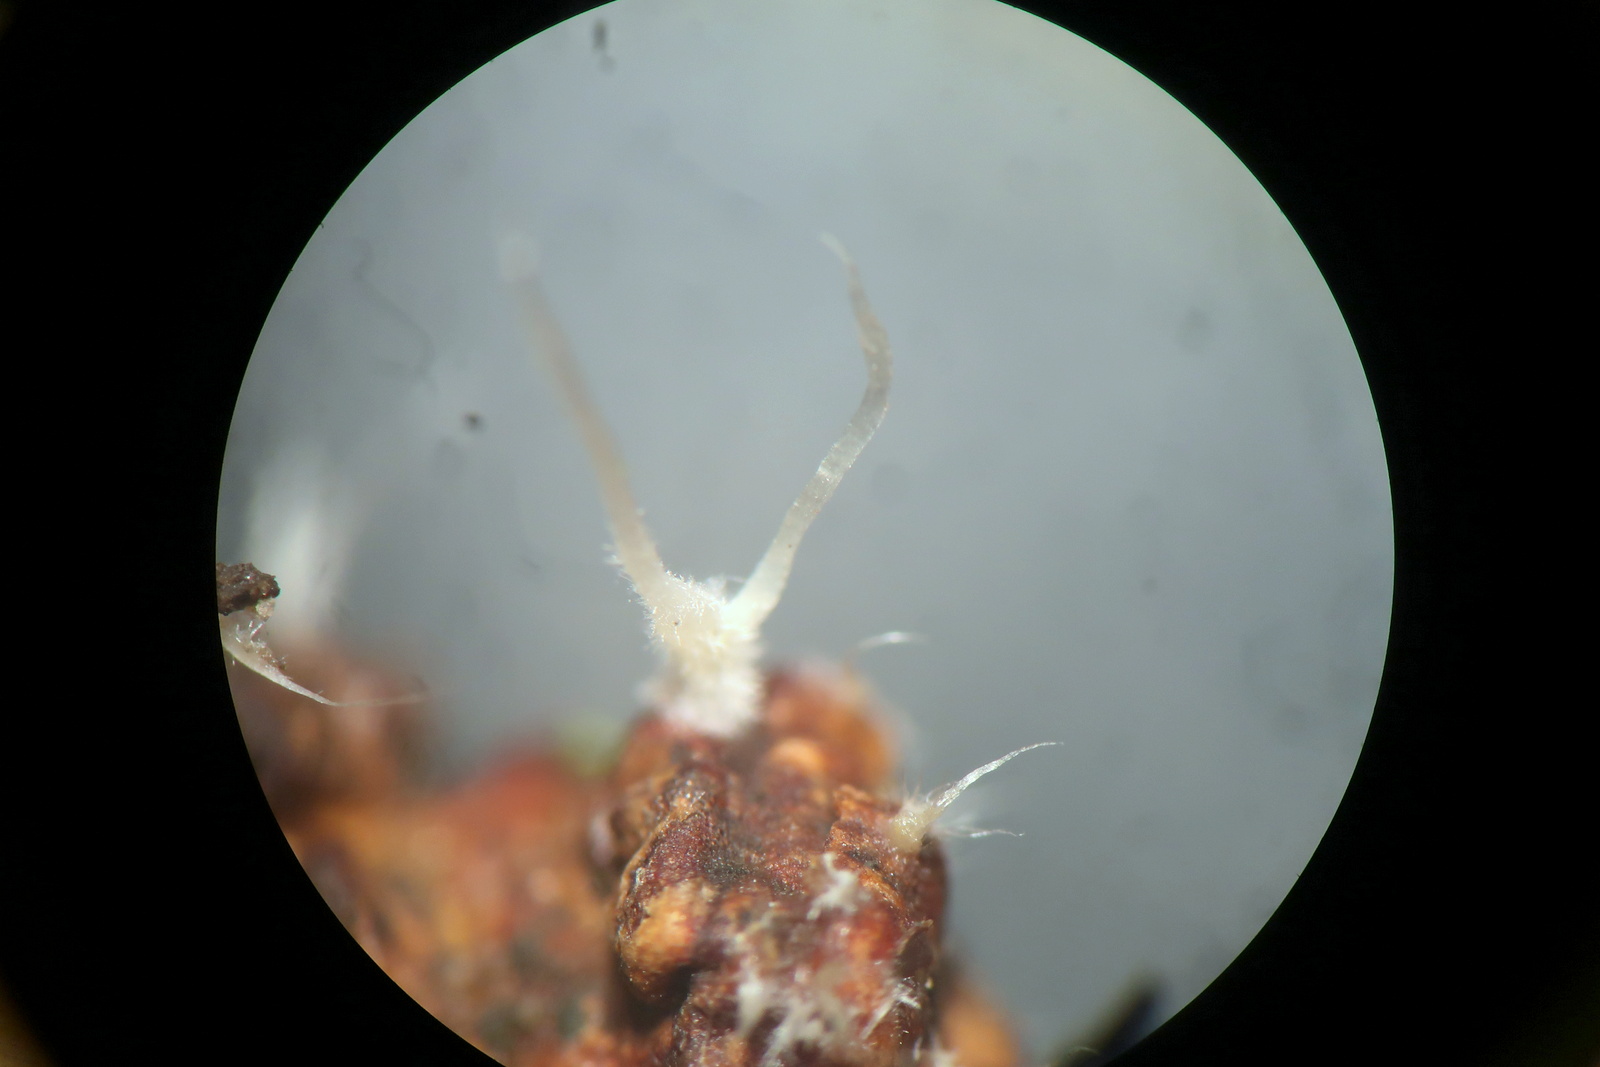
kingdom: Fungi
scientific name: Fungi
